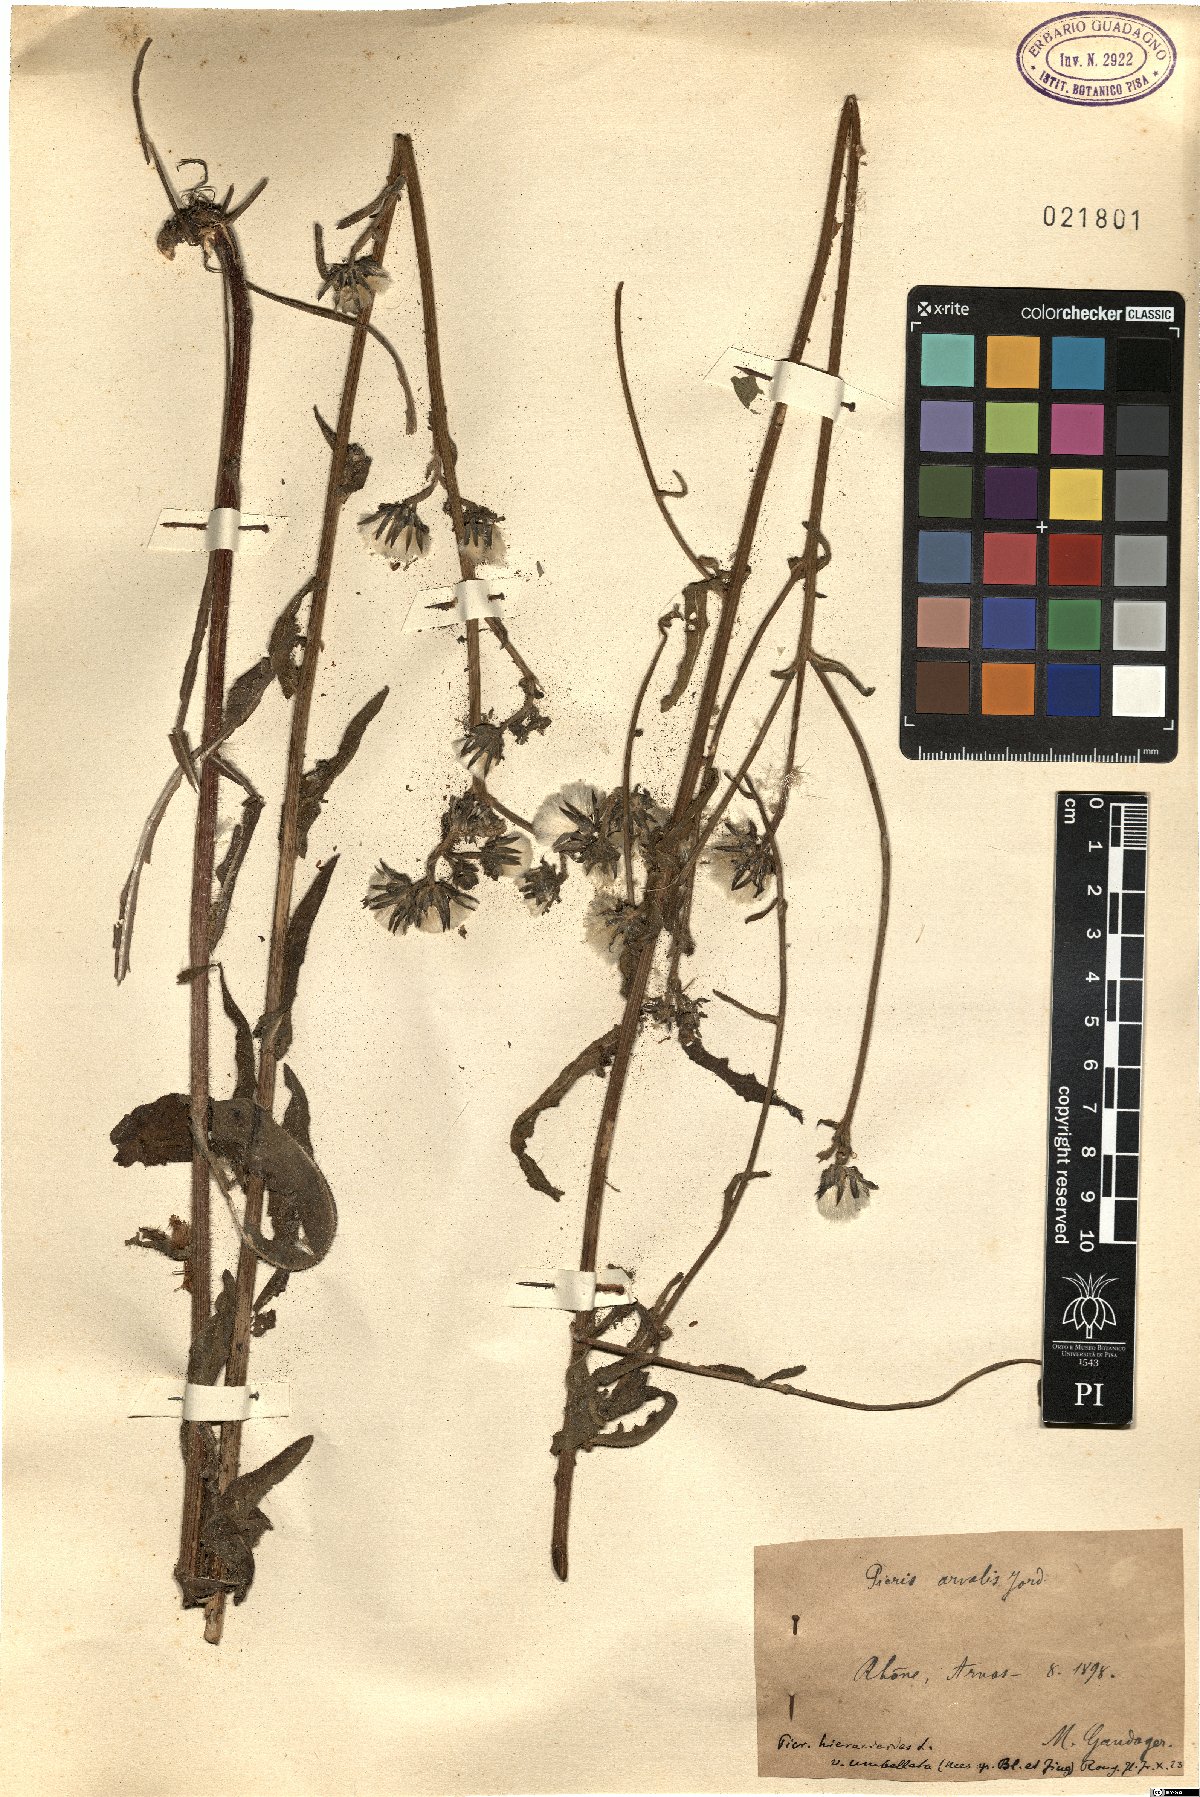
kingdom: Plantae
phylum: Tracheophyta
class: Magnoliopsida
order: Asterales
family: Asteraceae
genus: Picris
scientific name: Picris hieracioides
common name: Hawkweed oxtongue
